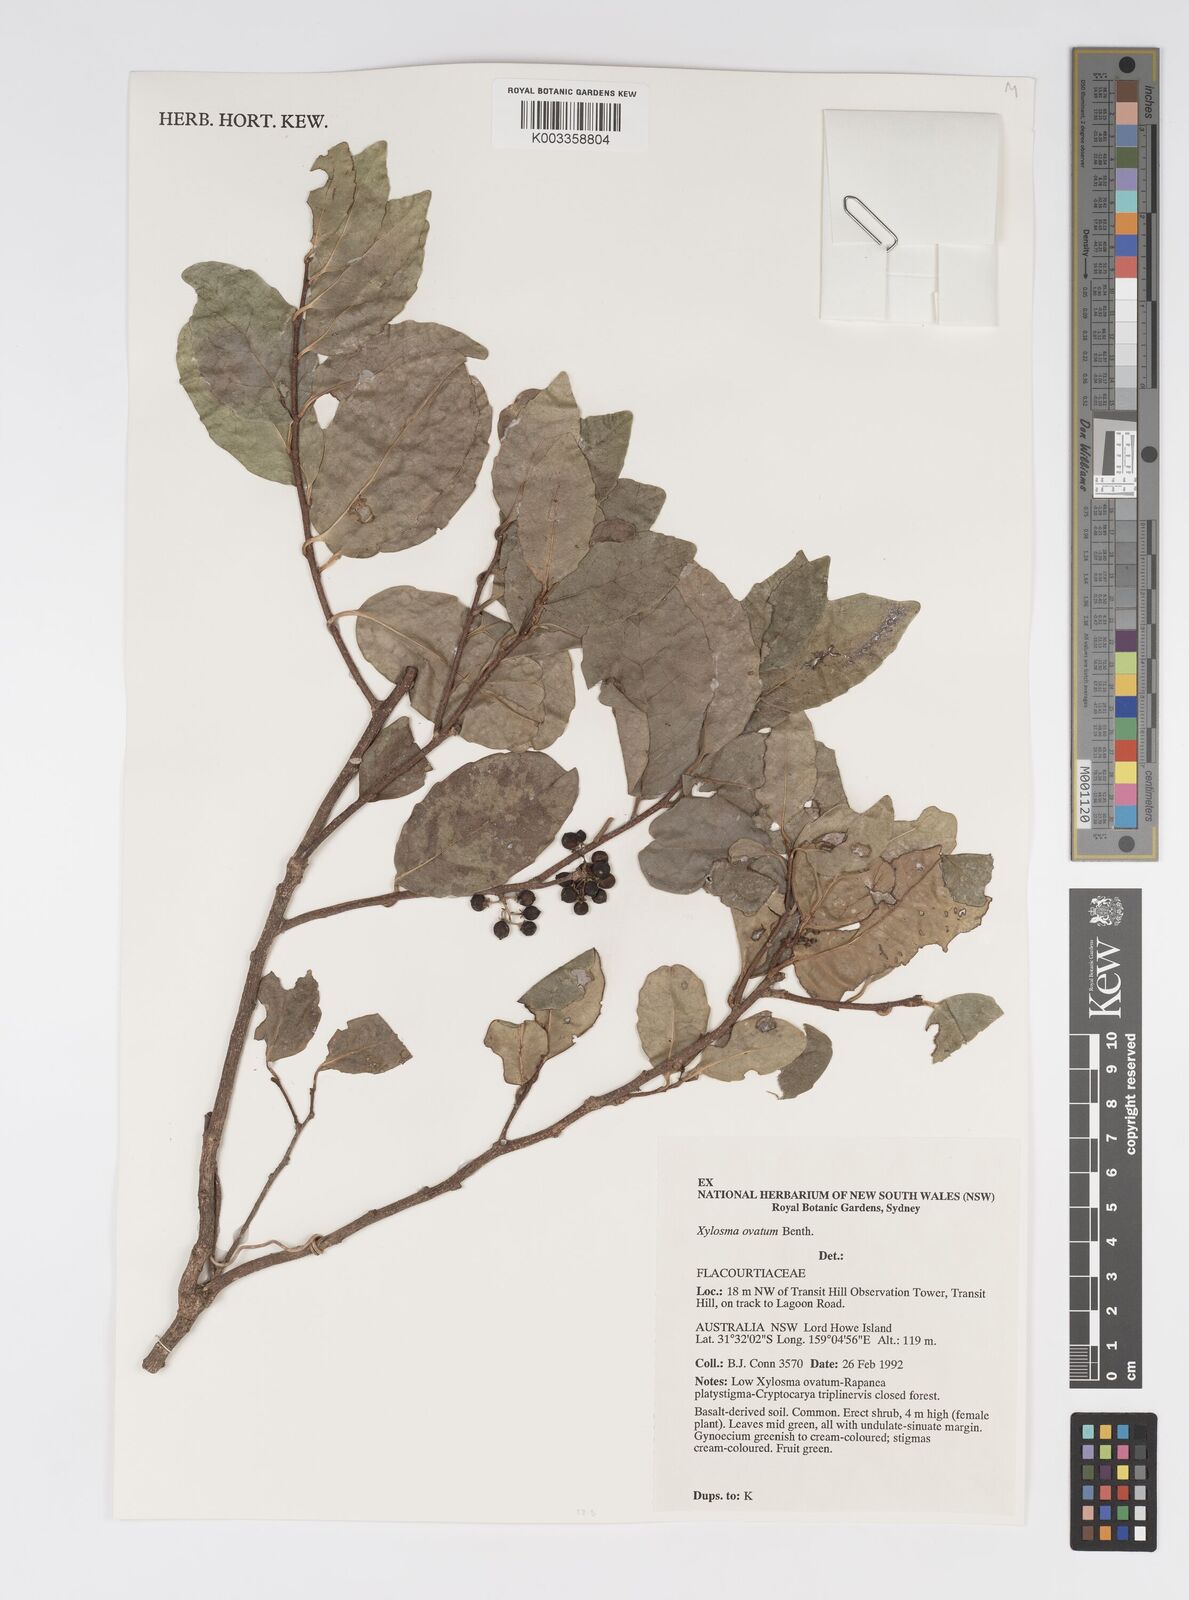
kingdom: Plantae
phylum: Tracheophyta
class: Magnoliopsida
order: Malpighiales
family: Salicaceae
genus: Xylosma
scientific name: Xylosma maidenii
